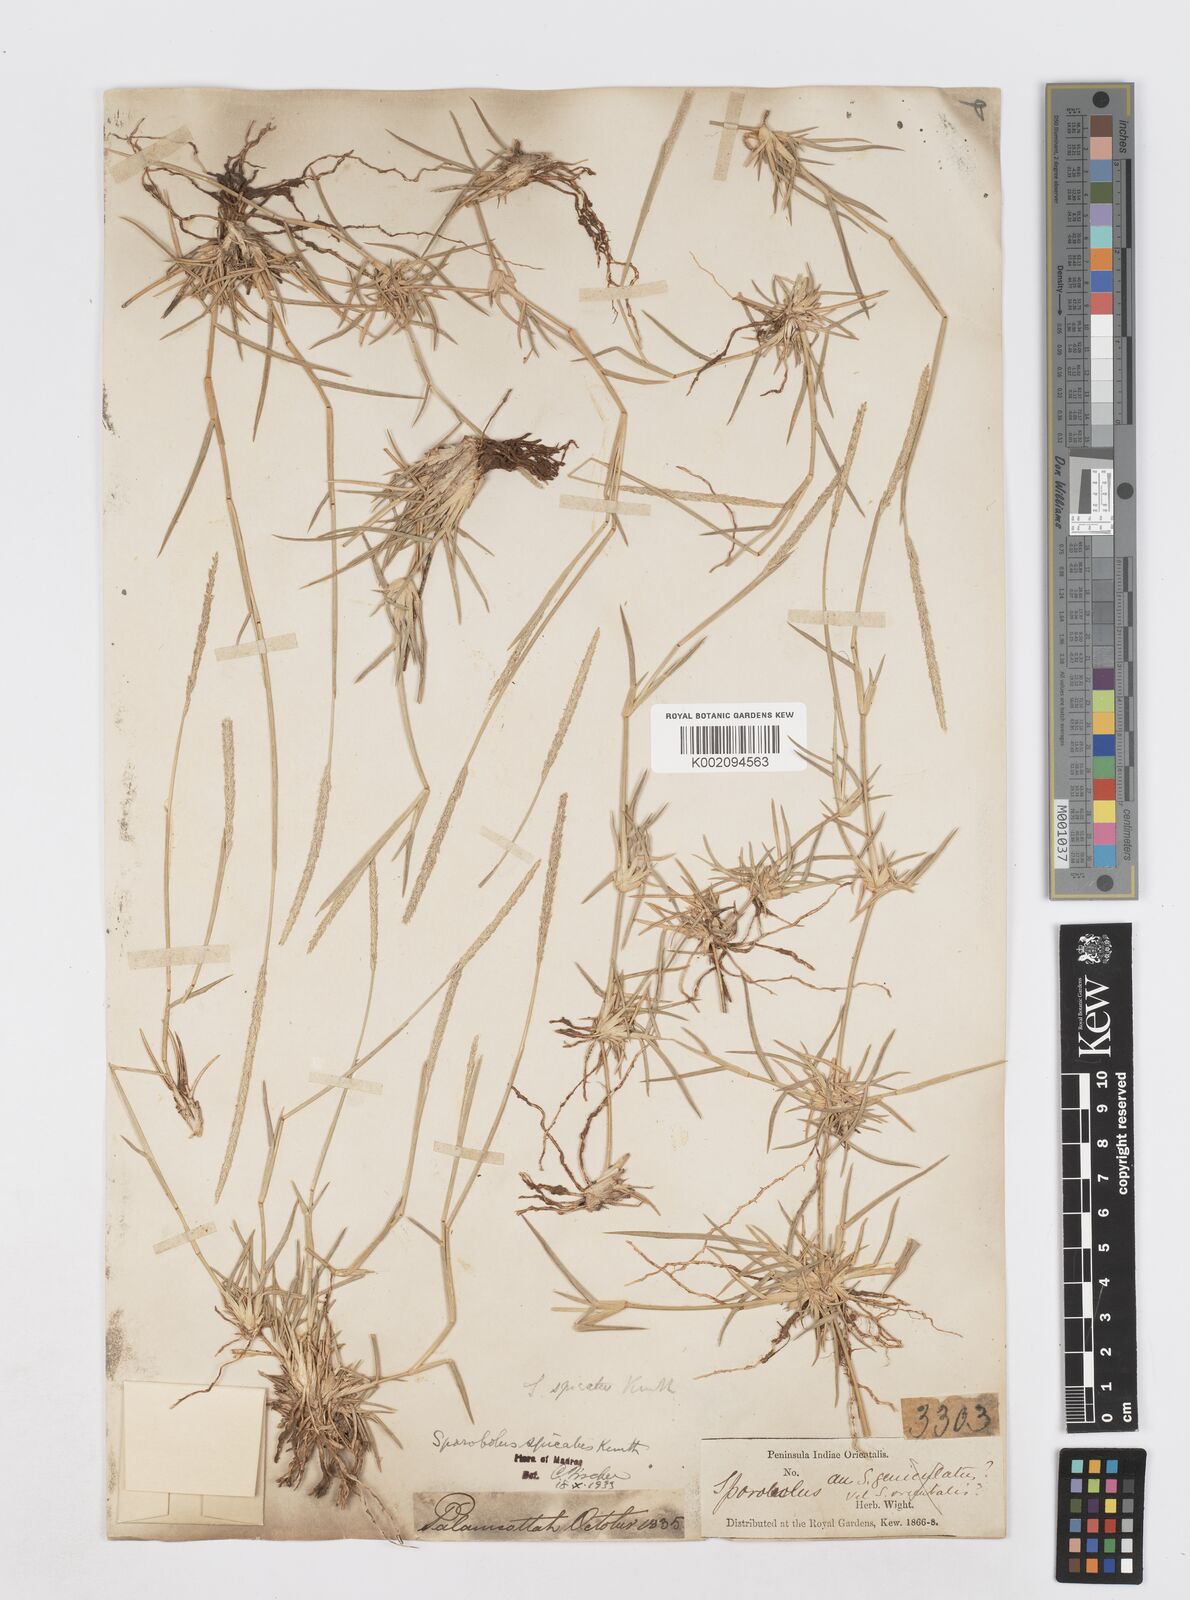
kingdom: Plantae
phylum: Tracheophyta
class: Liliopsida
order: Poales
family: Poaceae
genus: Sporobolus
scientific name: Sporobolus spicatus
